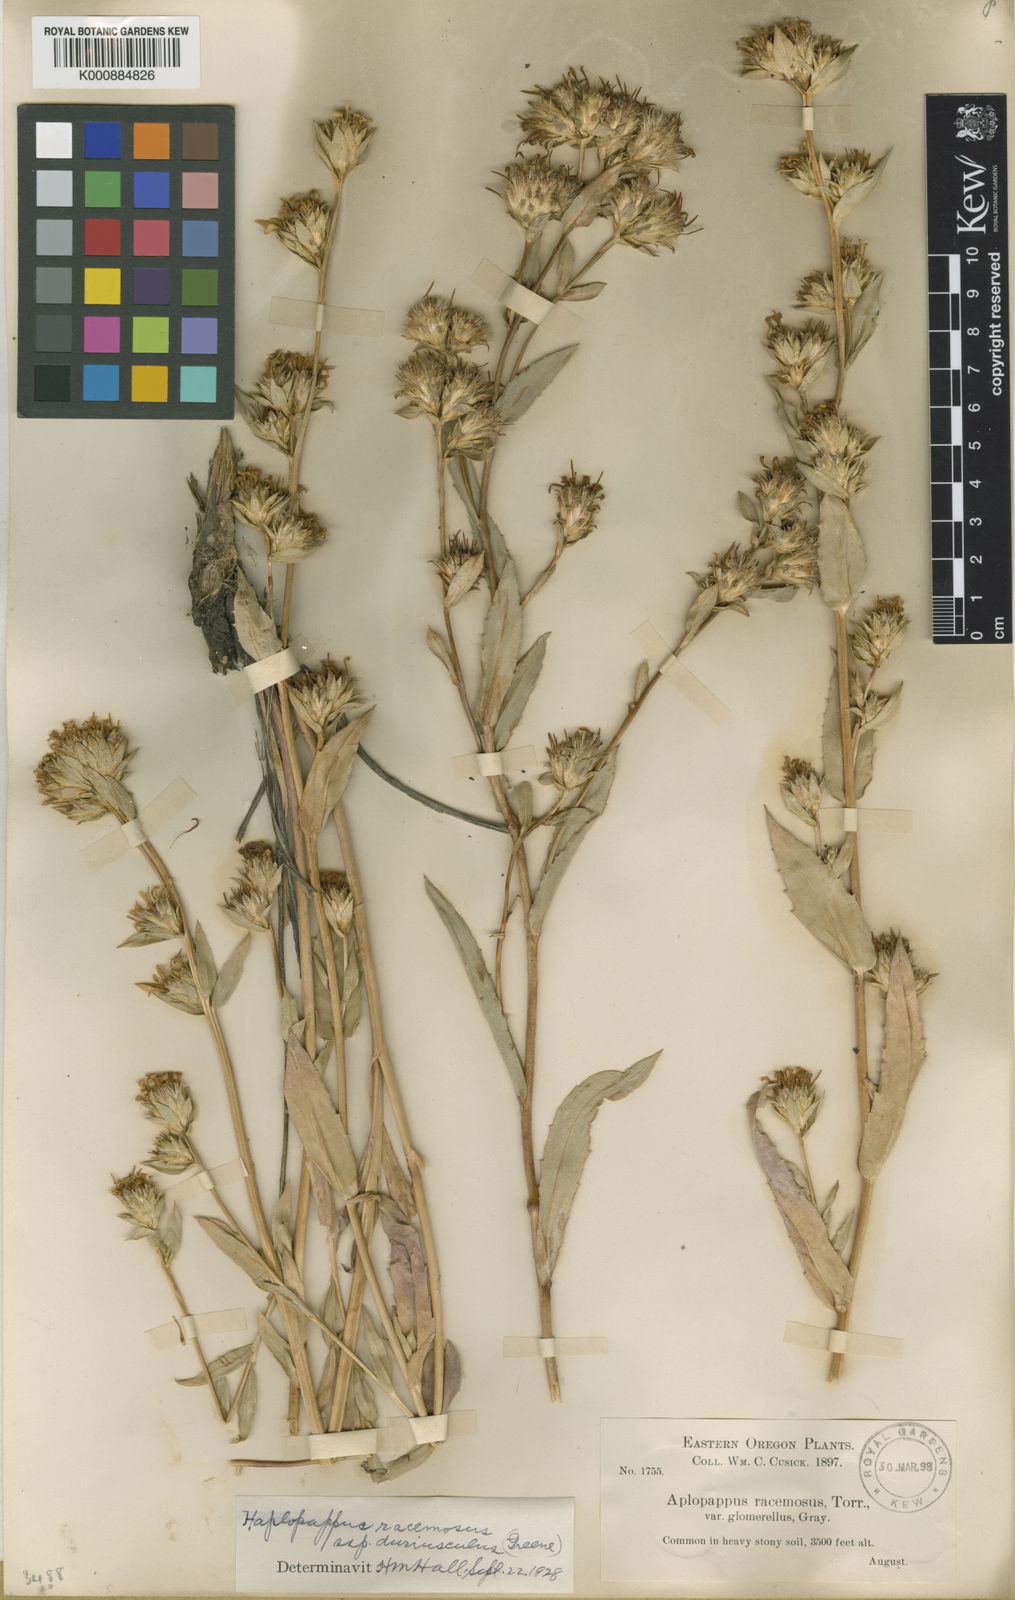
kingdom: Plantae
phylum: Tracheophyta
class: Magnoliopsida
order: Asterales
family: Asteraceae
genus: Pyrrocoma
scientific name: Pyrrocoma racemosa
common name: Clustered goldenweed
